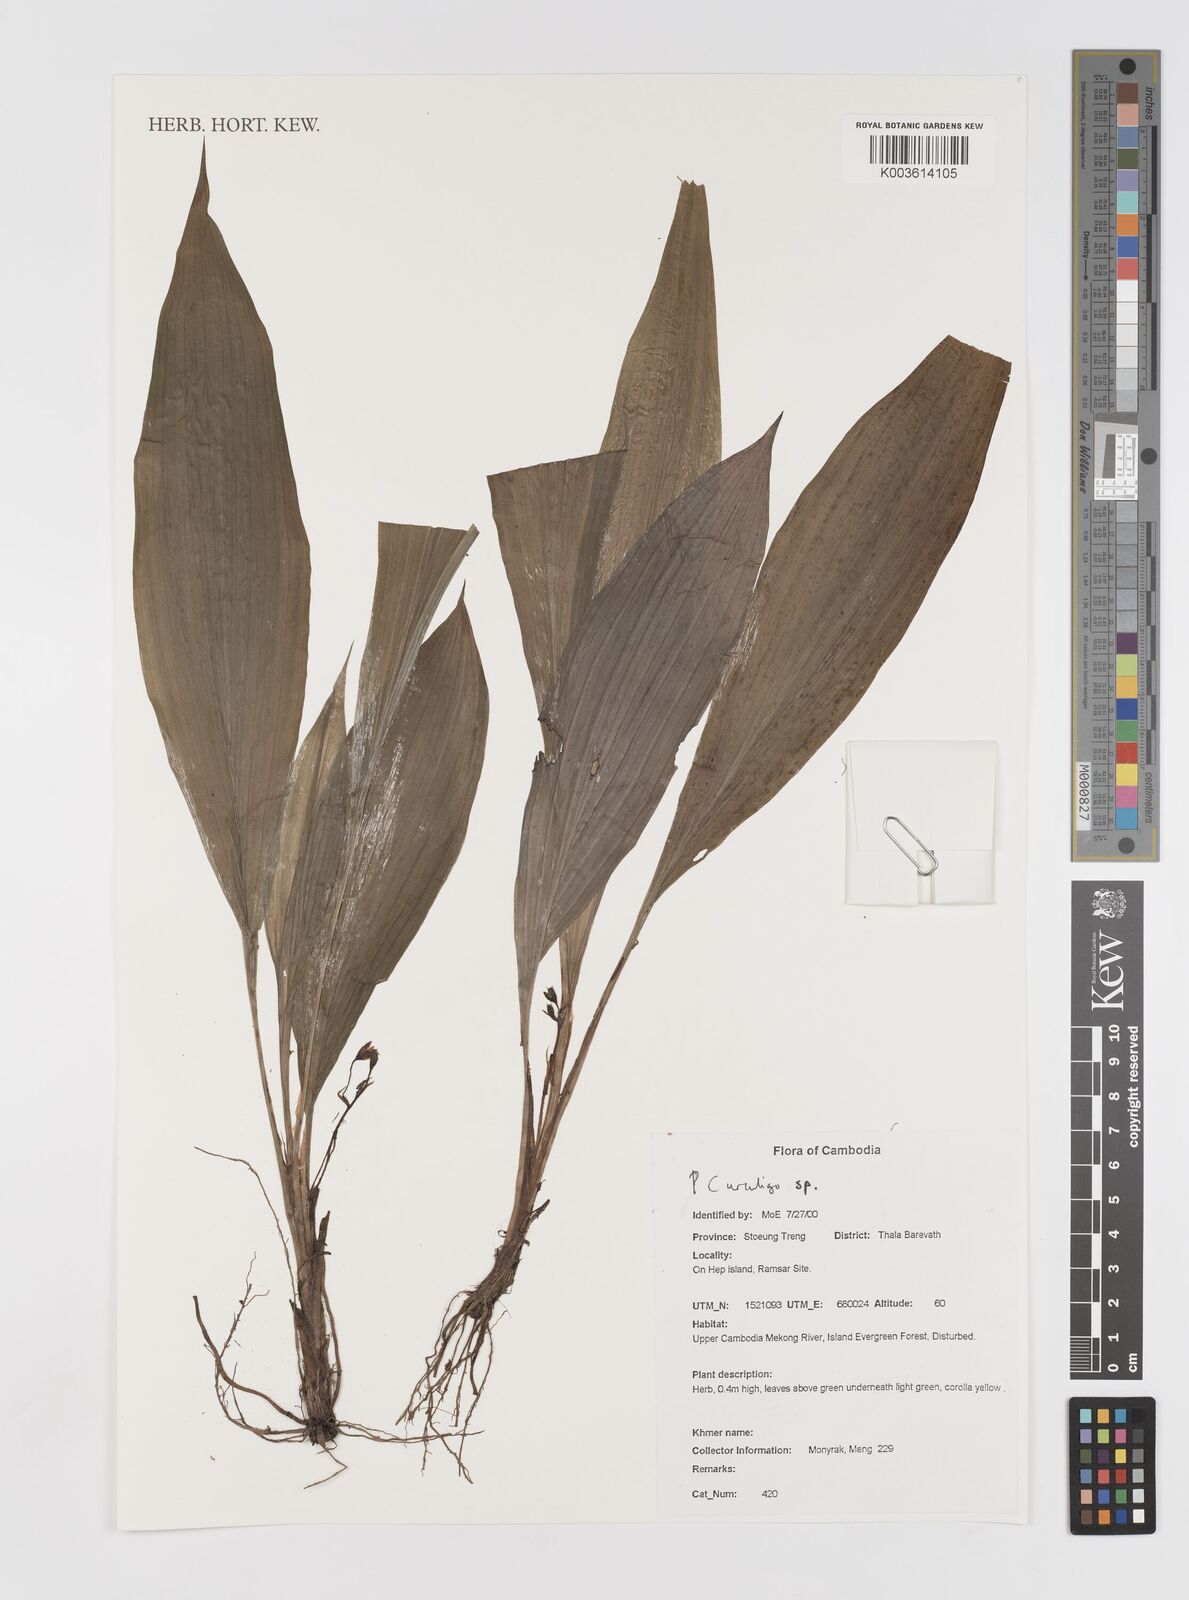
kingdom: Plantae
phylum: Tracheophyta
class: Liliopsida
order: Asparagales
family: Hypoxidaceae
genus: Curculigo
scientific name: Curculigo
